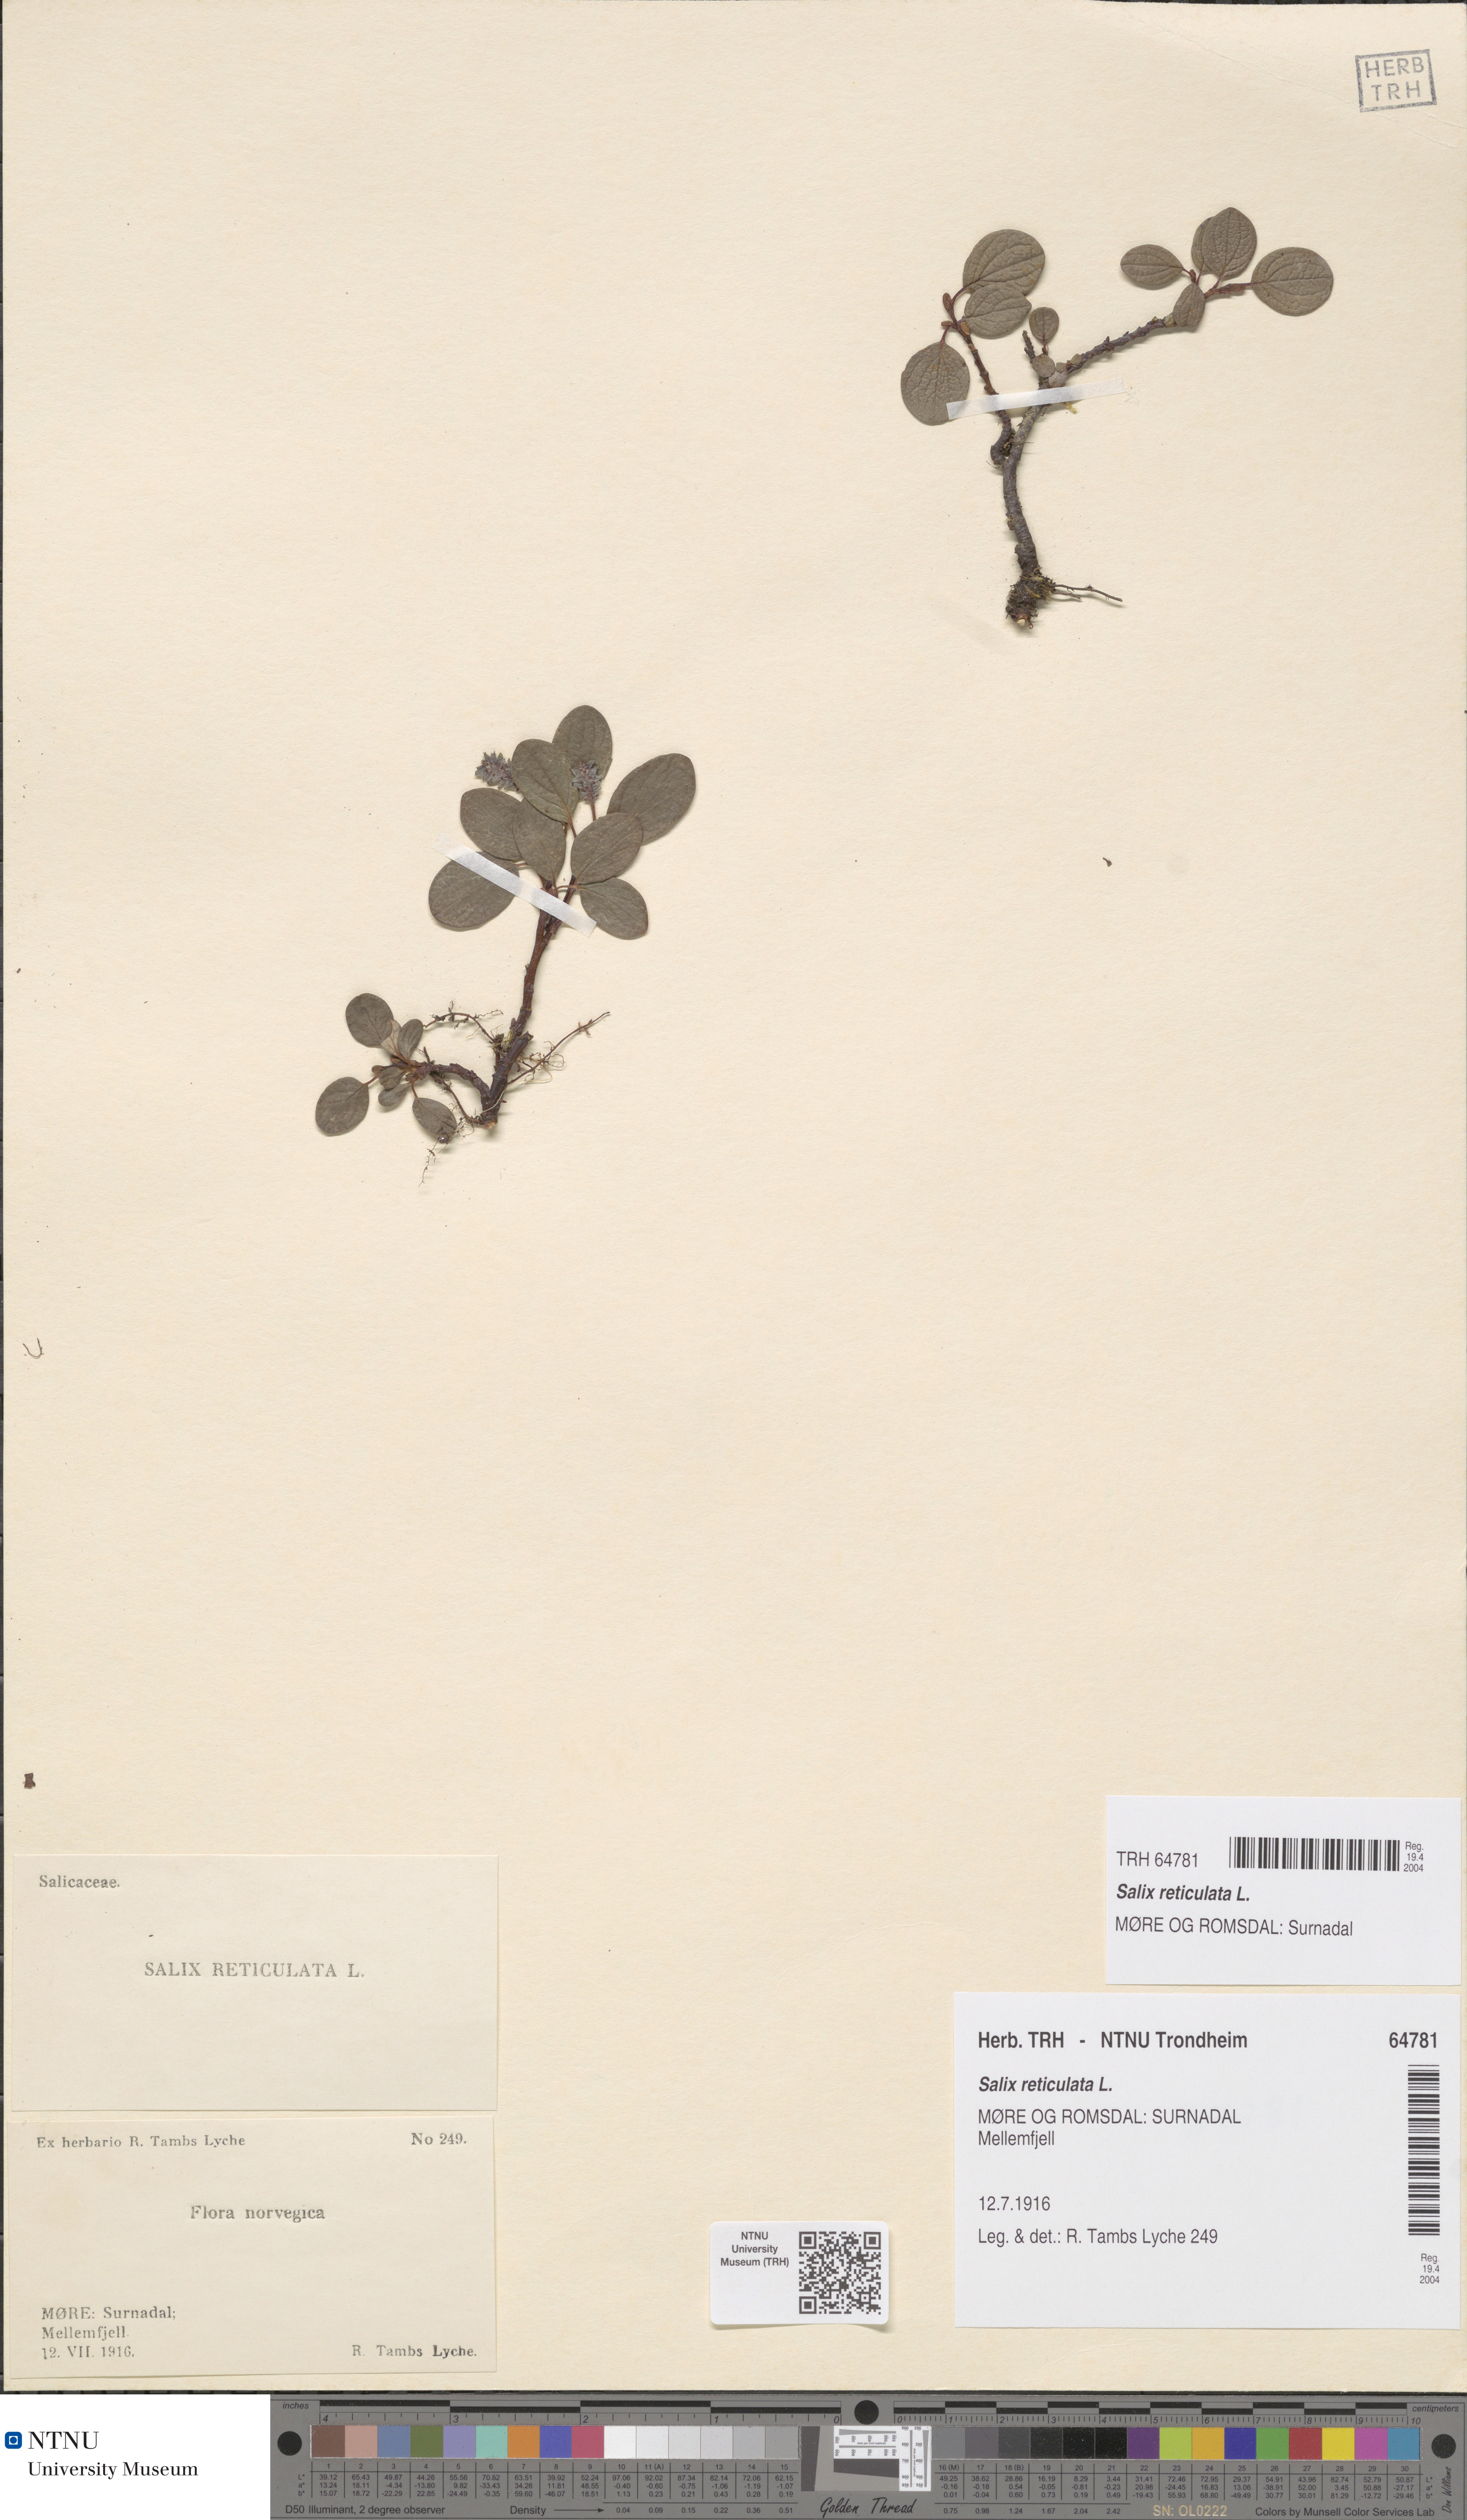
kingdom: Plantae
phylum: Tracheophyta
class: Magnoliopsida
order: Malpighiales
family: Salicaceae
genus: Salix
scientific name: Salix reticulata
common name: Net-leaved willow
